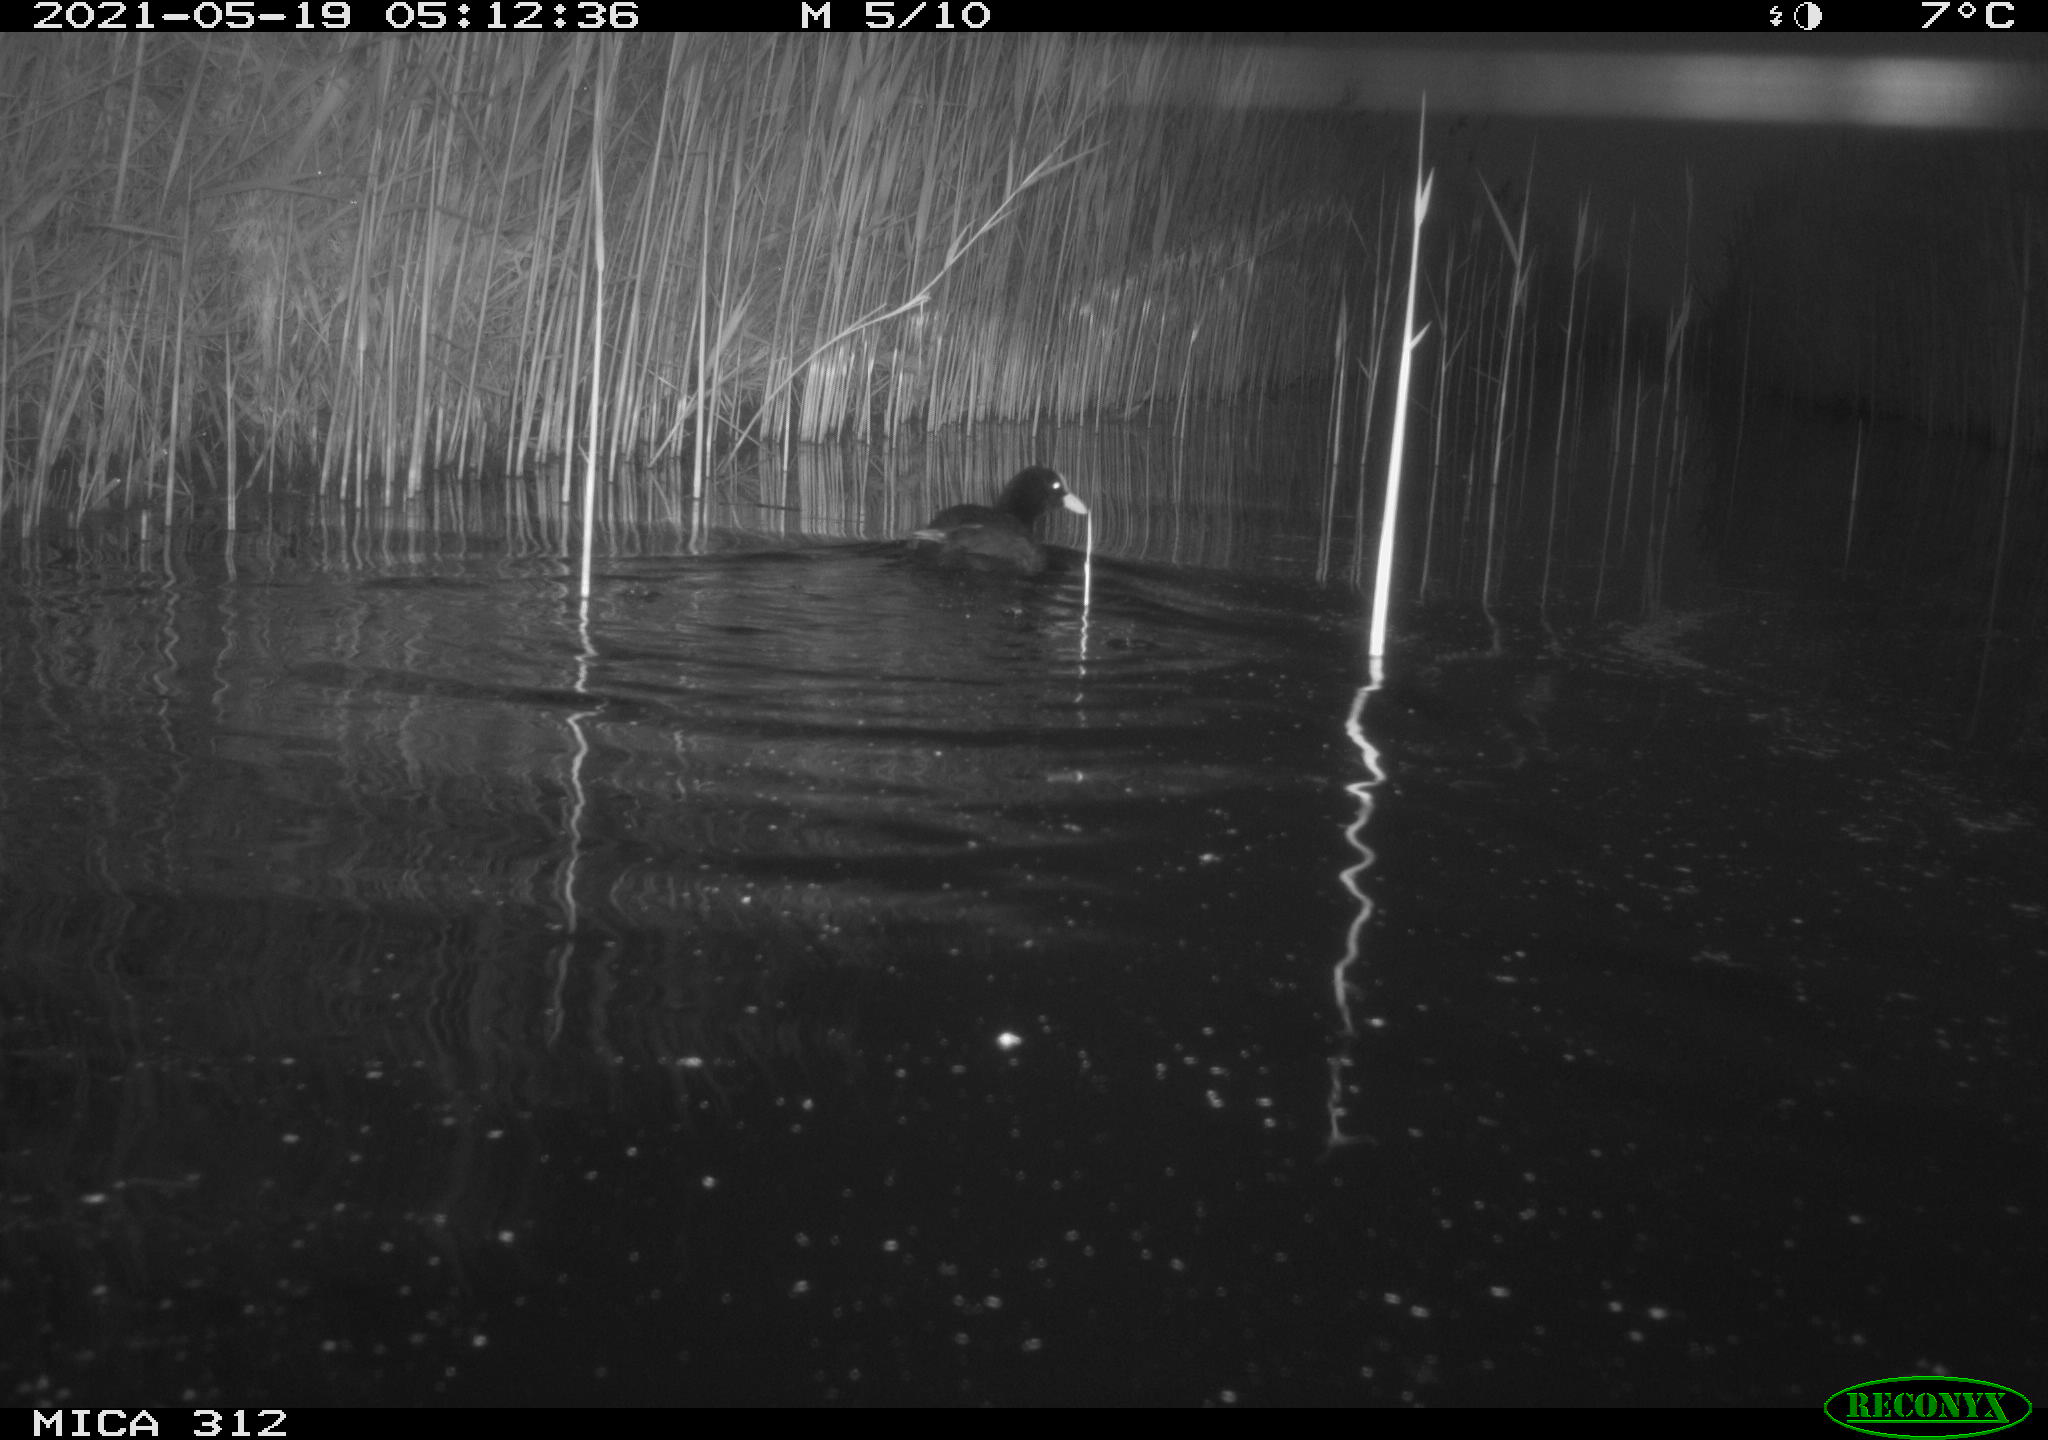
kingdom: Animalia
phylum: Chordata
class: Aves
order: Gruiformes
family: Rallidae
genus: Fulica
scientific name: Fulica atra
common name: Eurasian coot
